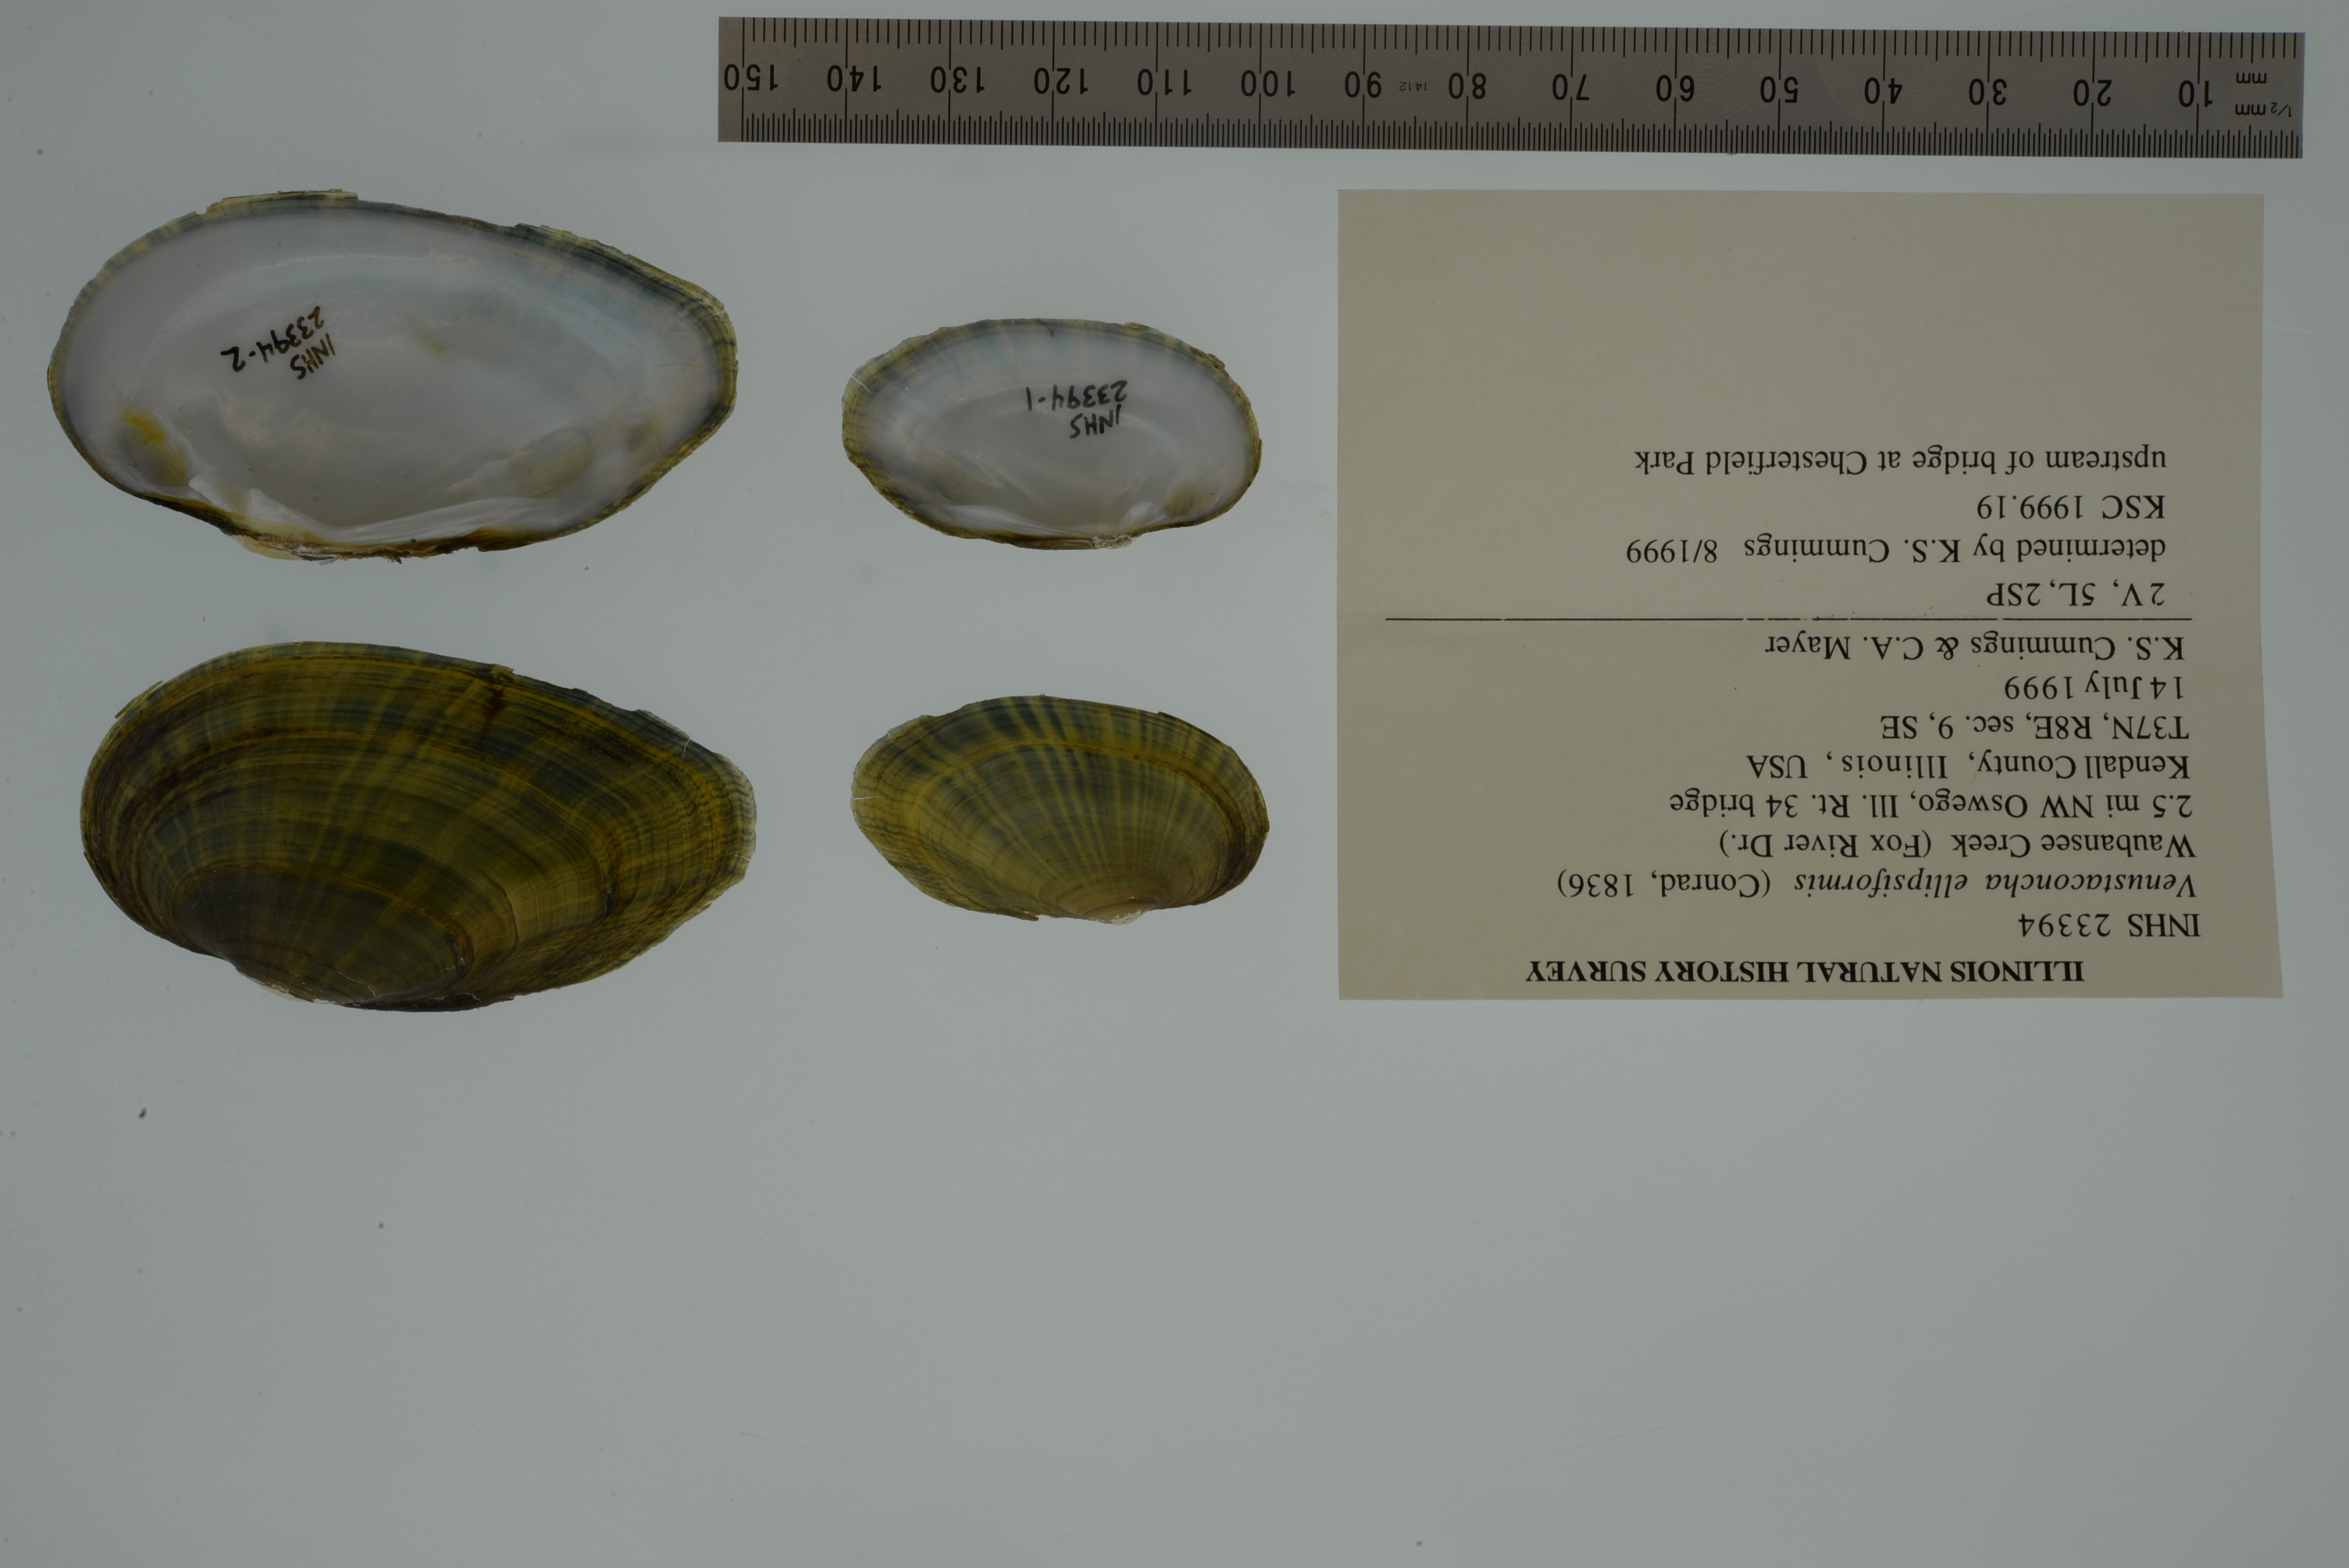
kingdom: Animalia
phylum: Mollusca
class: Bivalvia
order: Unionida
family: Unionidae
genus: Venustaconcha
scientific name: Venustaconcha ellipsiformis
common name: Ellipse
